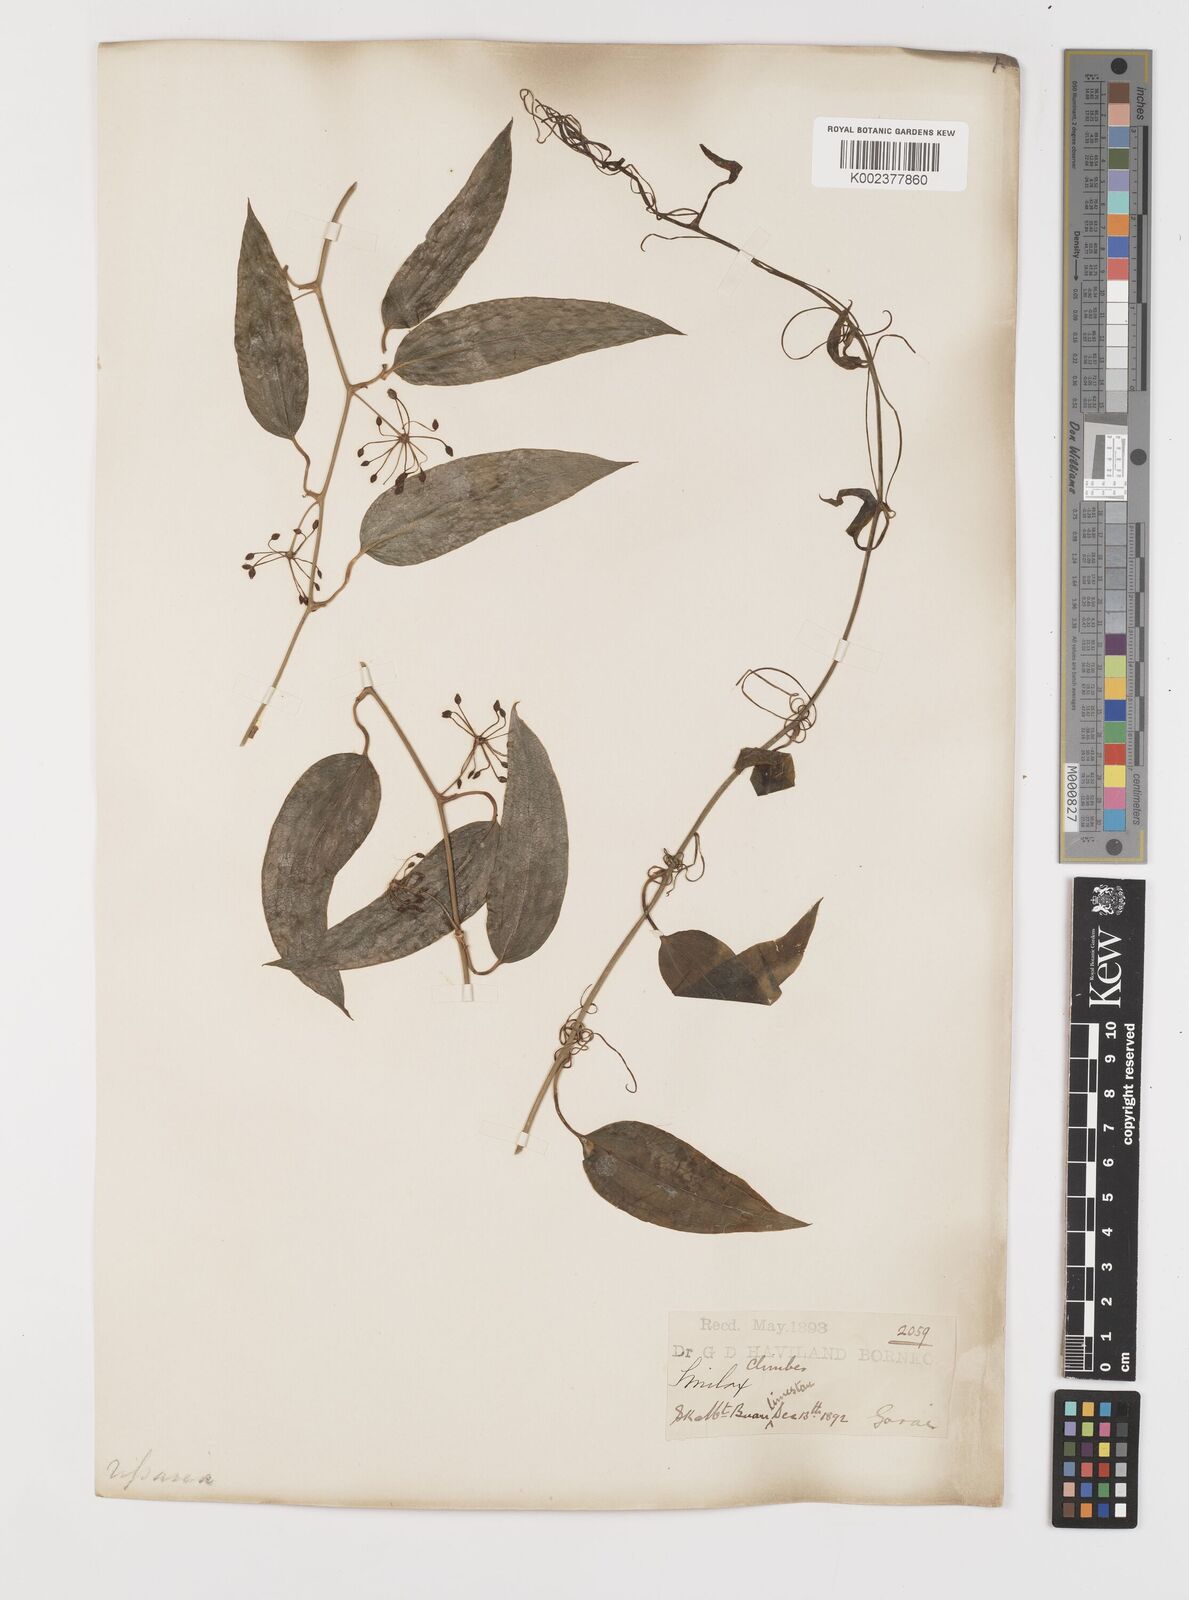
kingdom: Plantae
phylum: Tracheophyta
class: Liliopsida
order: Liliales
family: Smilacaceae
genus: Smilax
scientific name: Smilax
